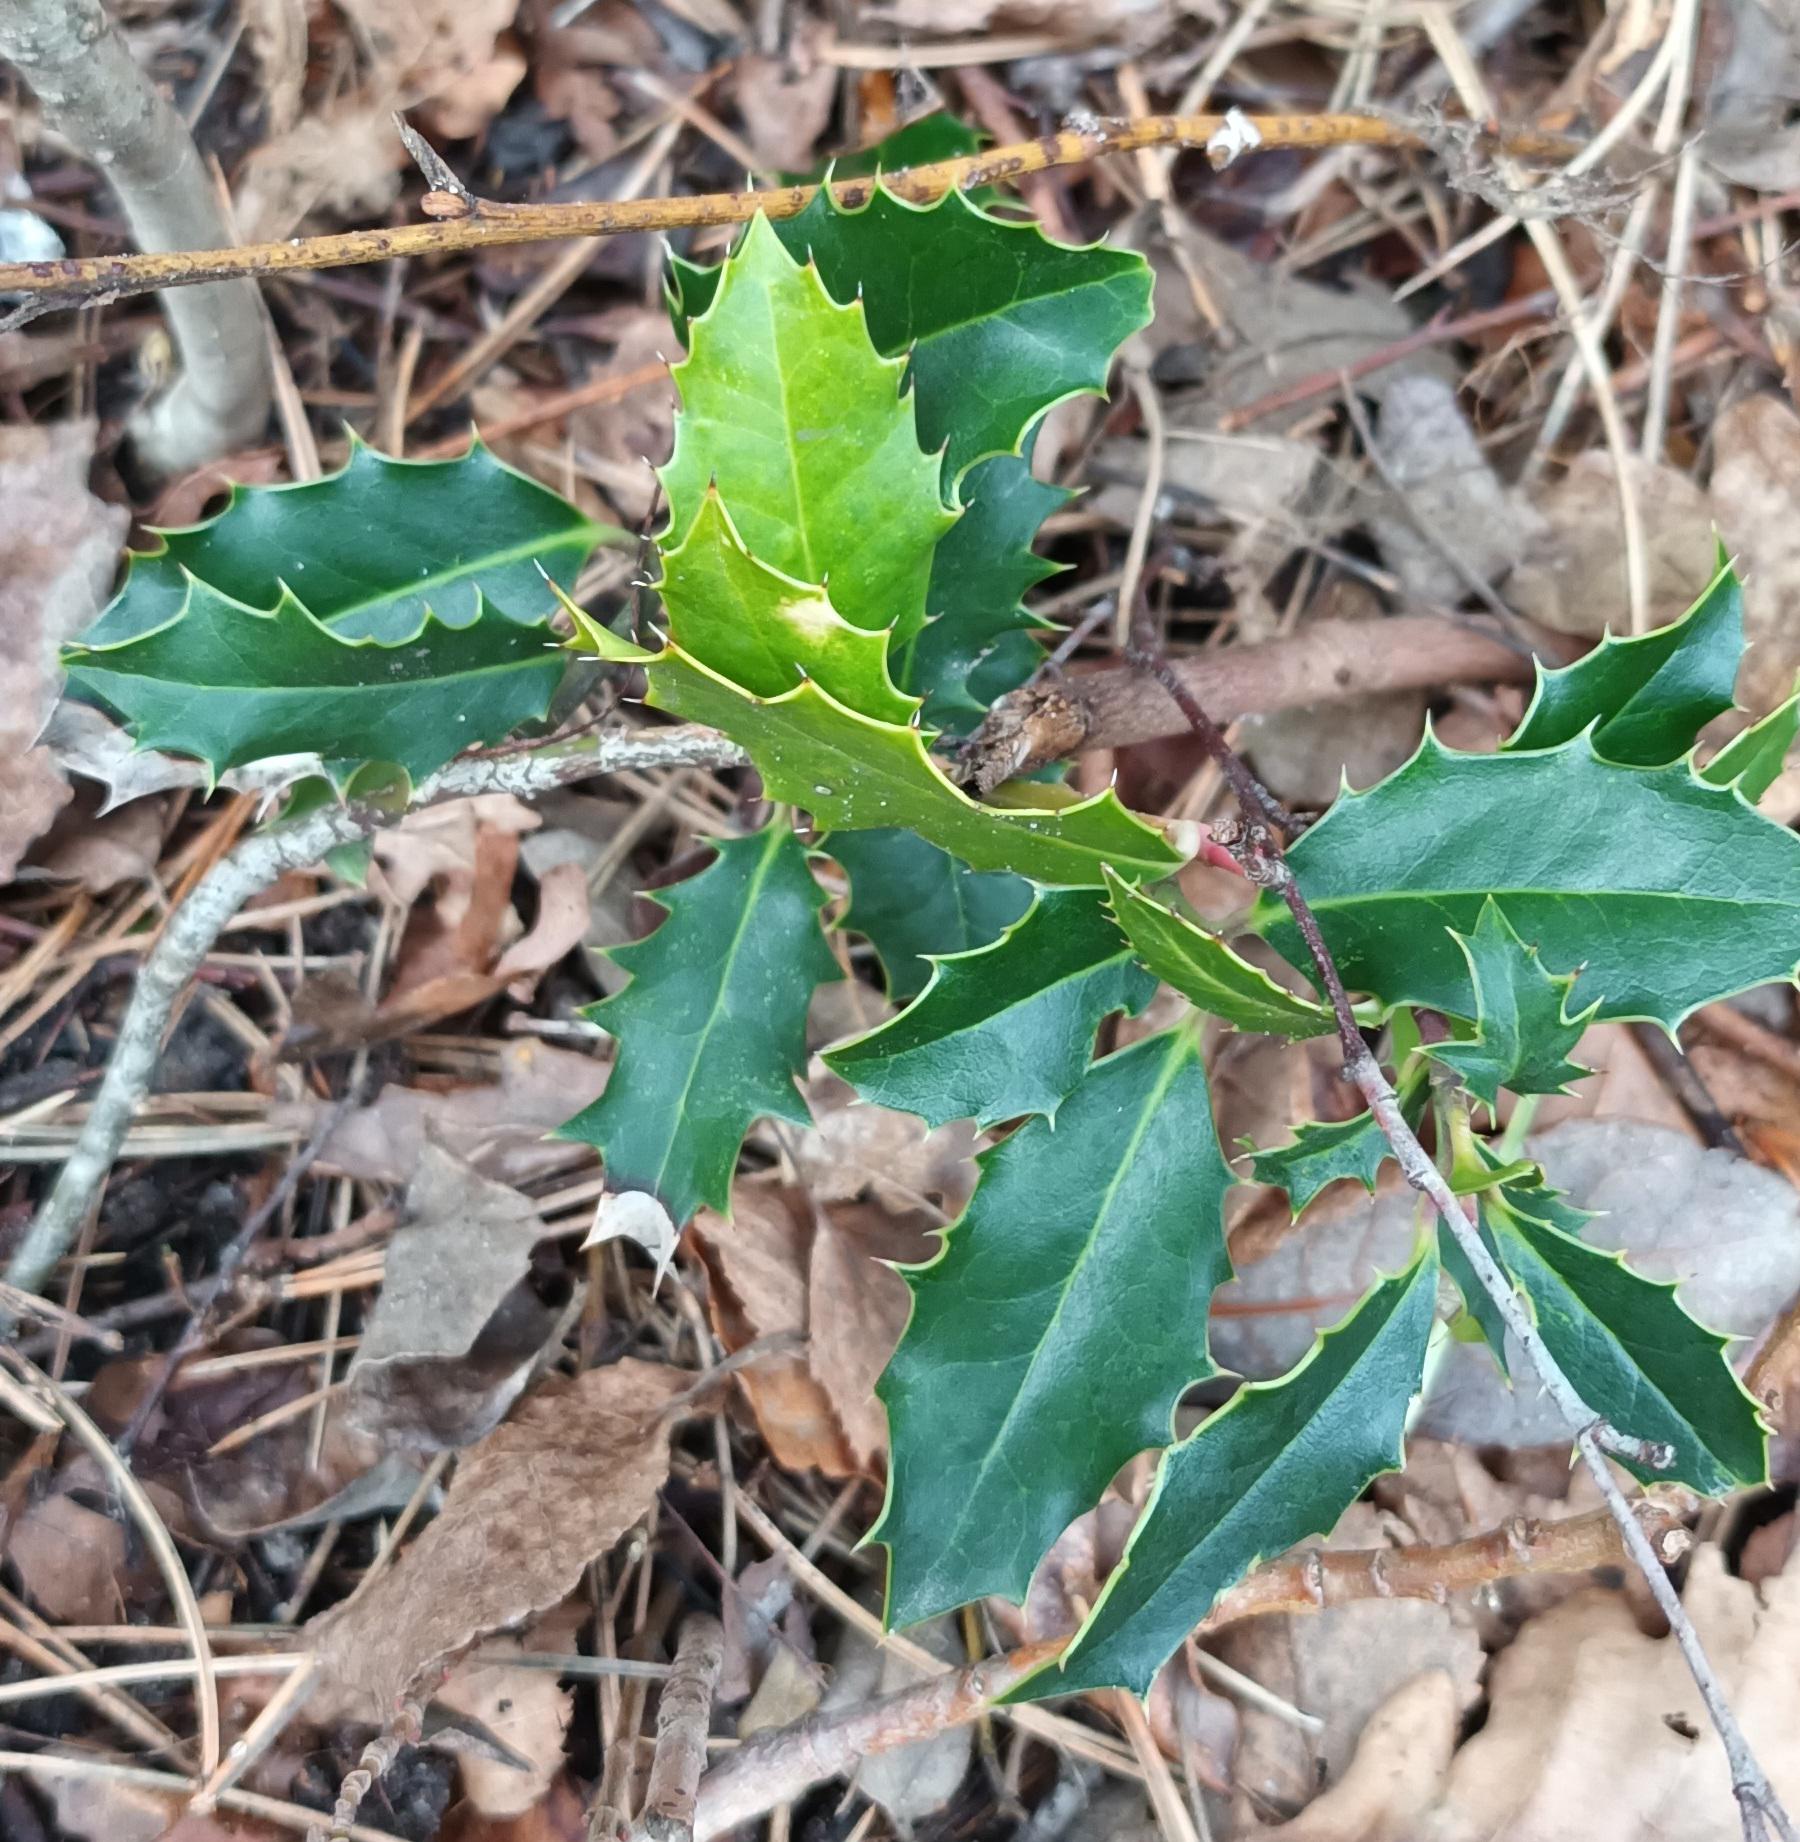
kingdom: Plantae
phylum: Tracheophyta
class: Magnoliopsida
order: Aquifoliales
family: Aquifoliaceae
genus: Ilex
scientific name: Ilex aquifolium
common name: Kristtorn
